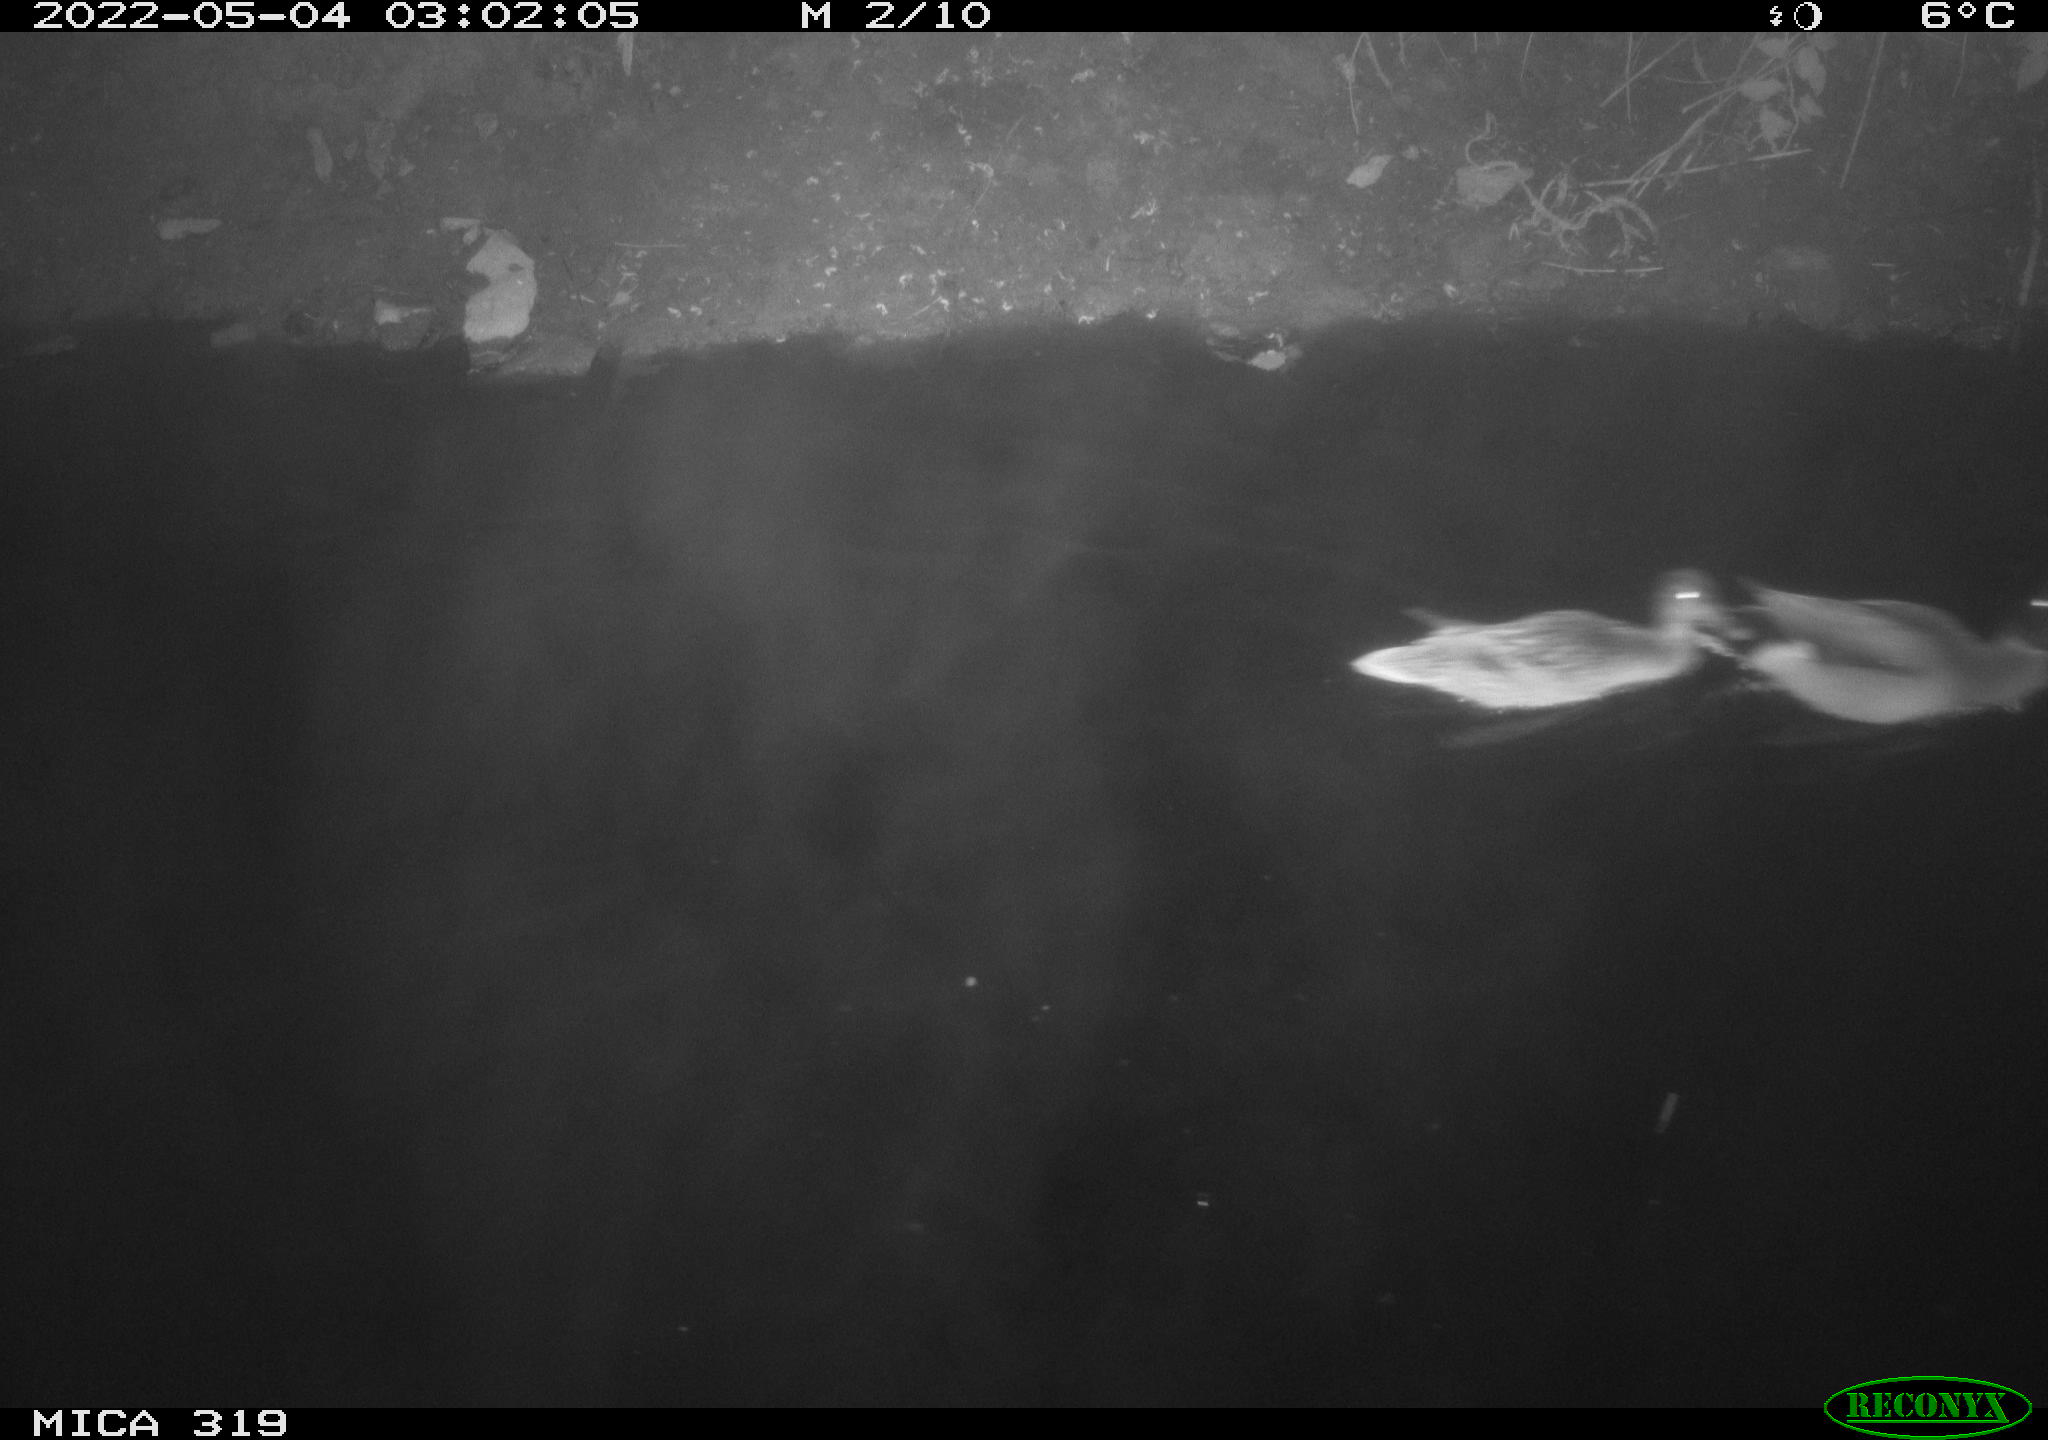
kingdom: Animalia
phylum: Chordata
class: Aves
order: Anseriformes
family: Anatidae
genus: Anas
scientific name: Anas platyrhynchos
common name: Mallard
